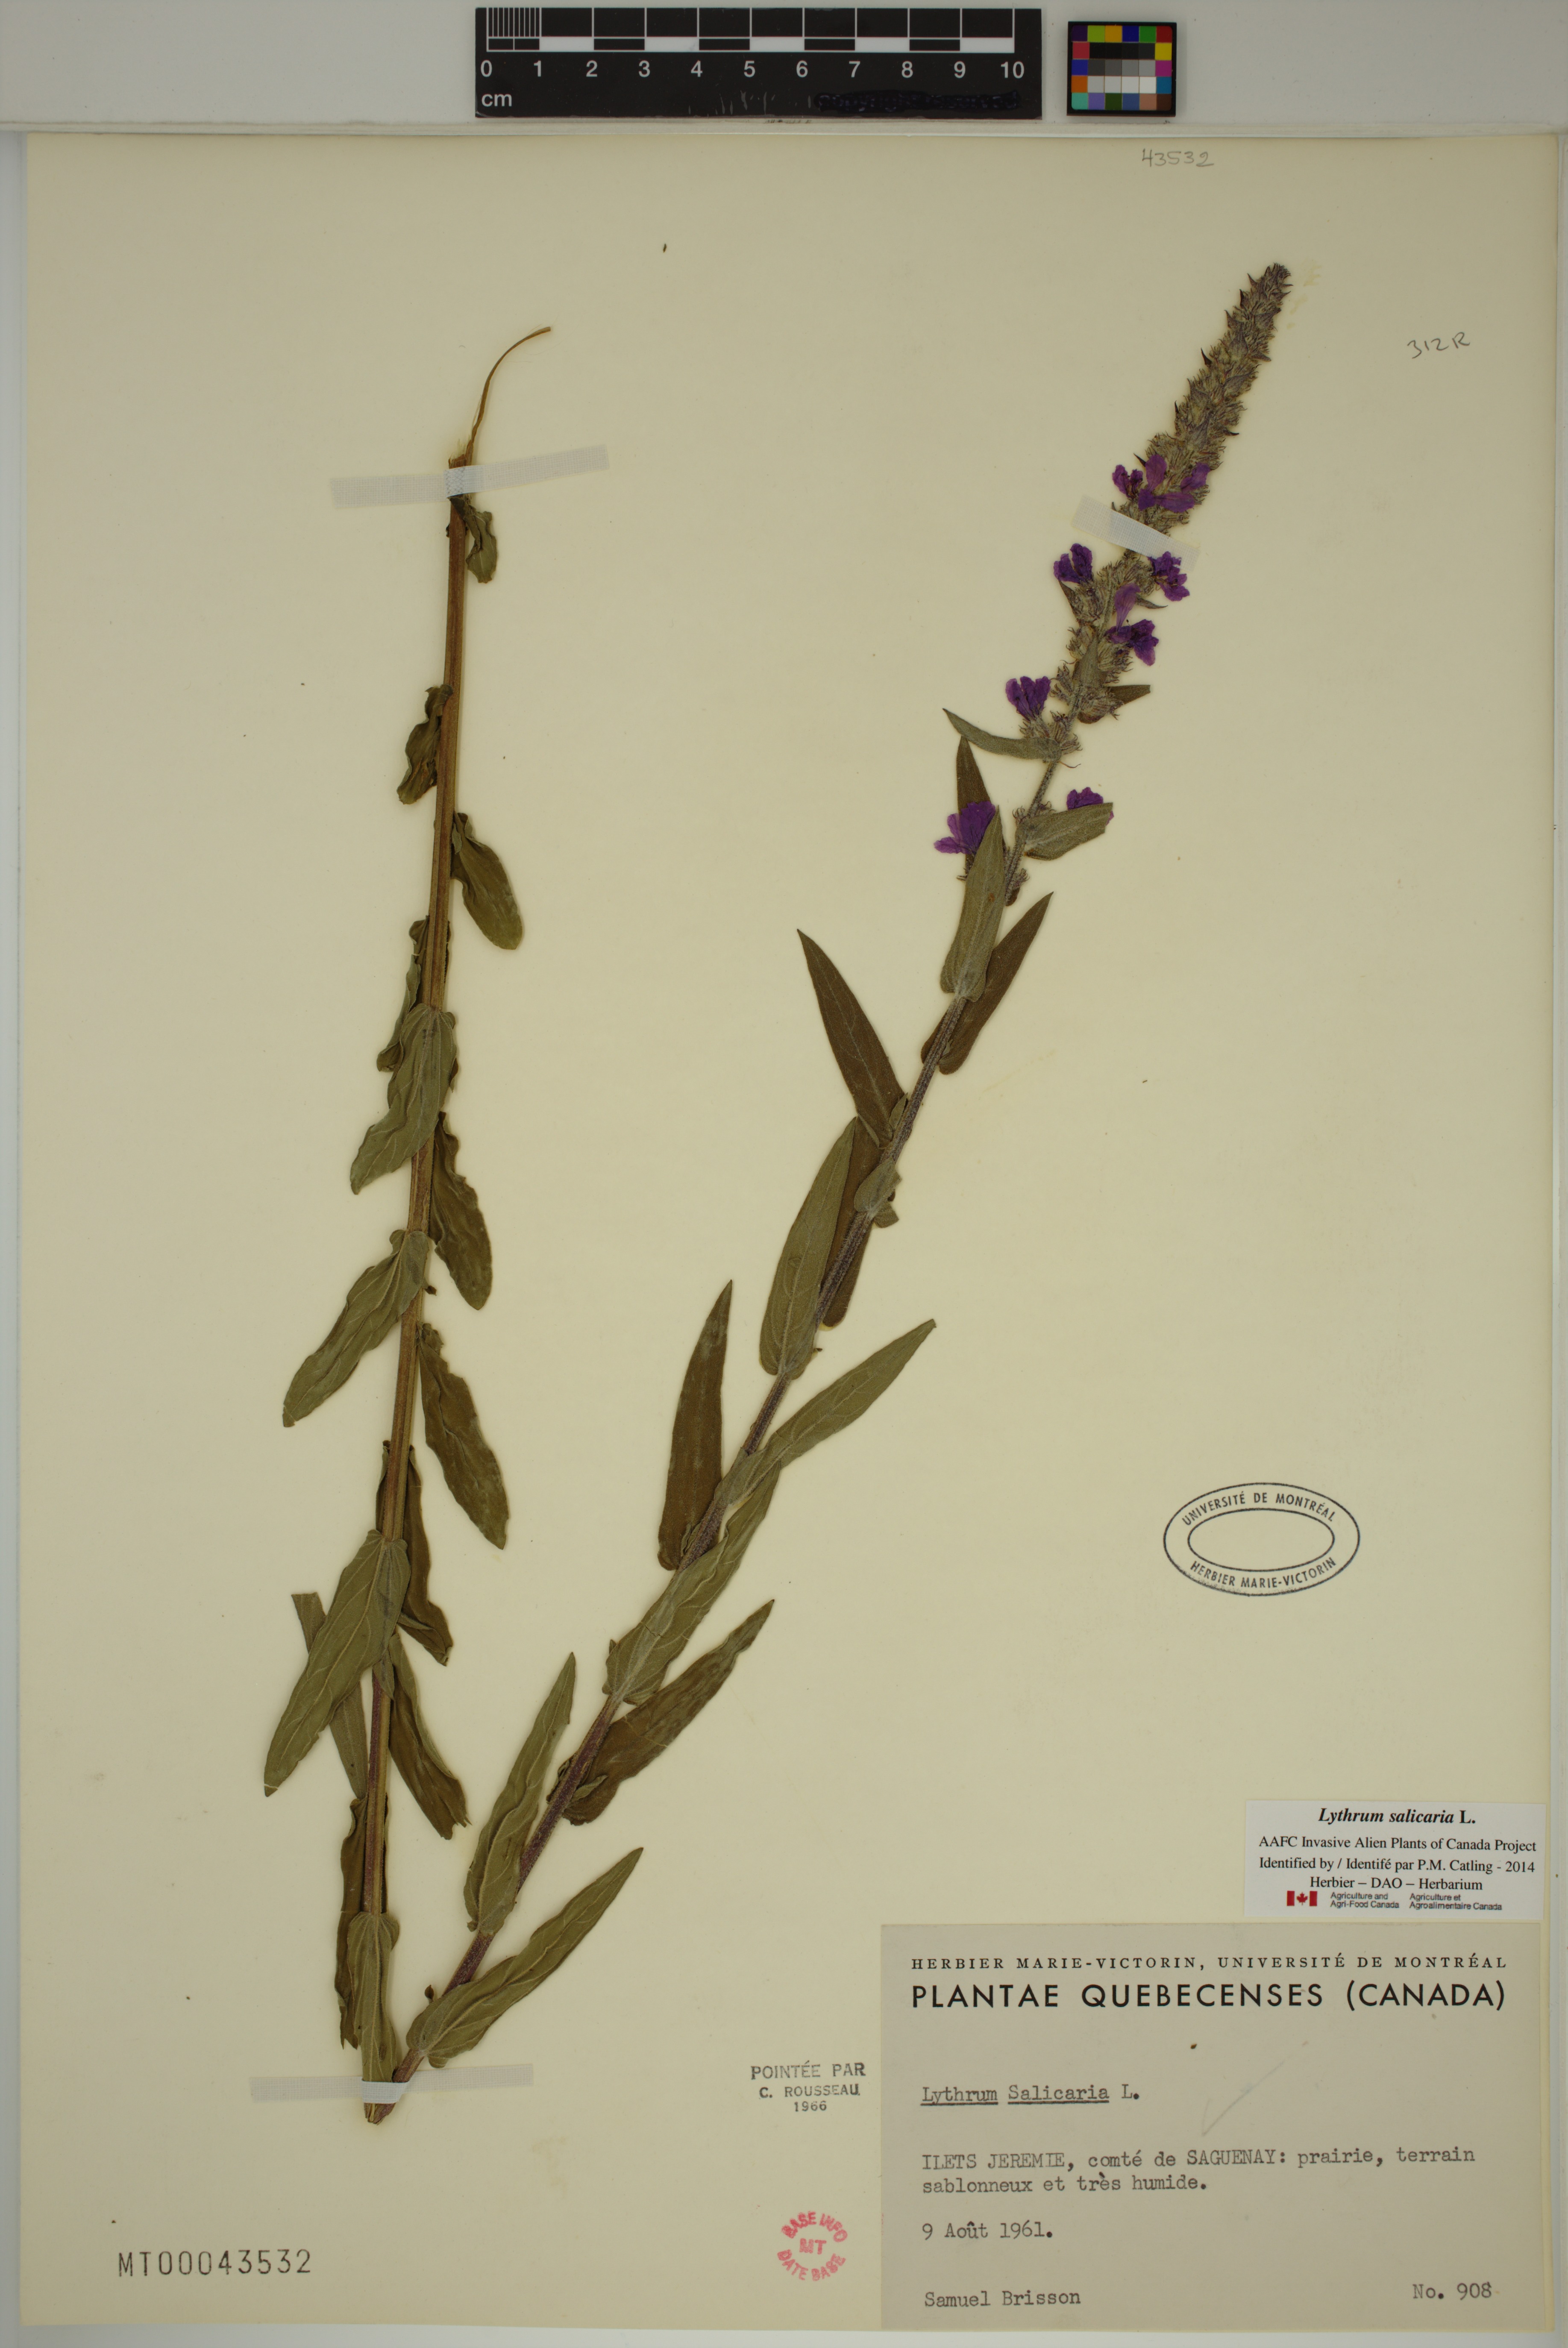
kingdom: Plantae
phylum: Tracheophyta
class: Magnoliopsida
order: Myrtales
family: Lythraceae
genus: Lythrum
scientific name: Lythrum salicaria
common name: Purple loosestrife
